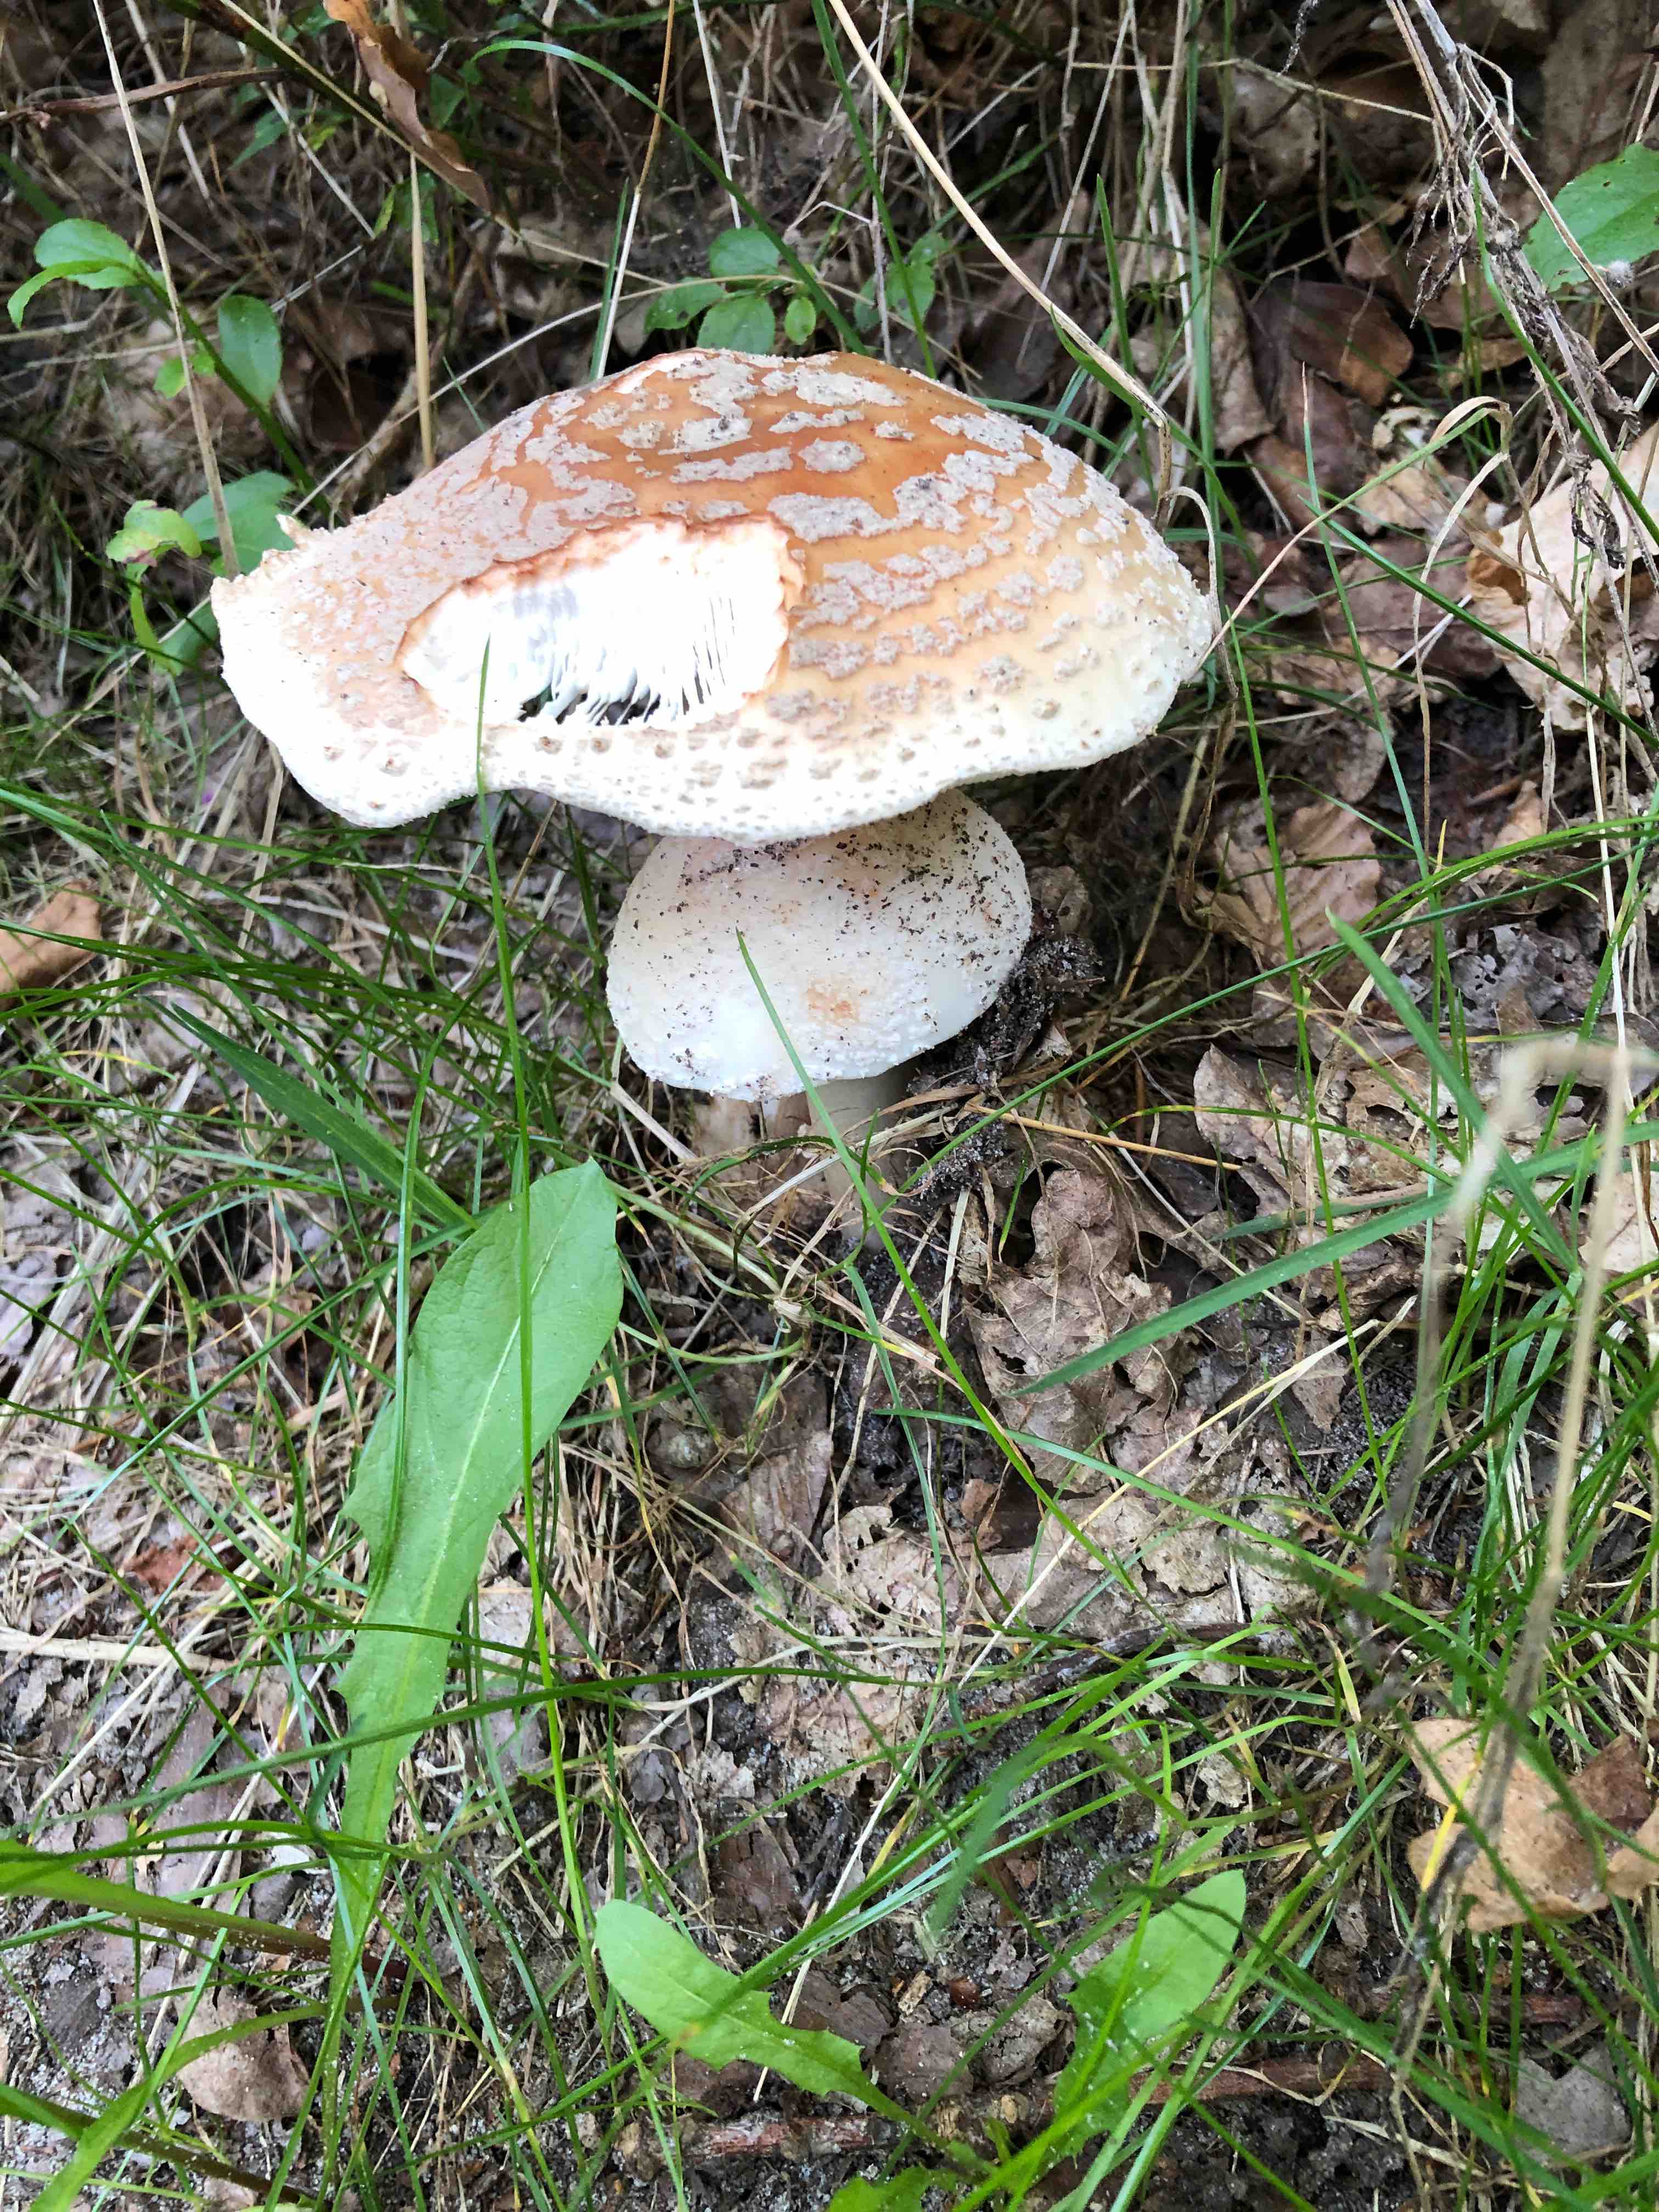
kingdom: Fungi
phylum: Basidiomycota
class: Agaricomycetes
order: Agaricales
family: Amanitaceae
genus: Amanita
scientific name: Amanita rubescens
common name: rødmende fluesvamp
